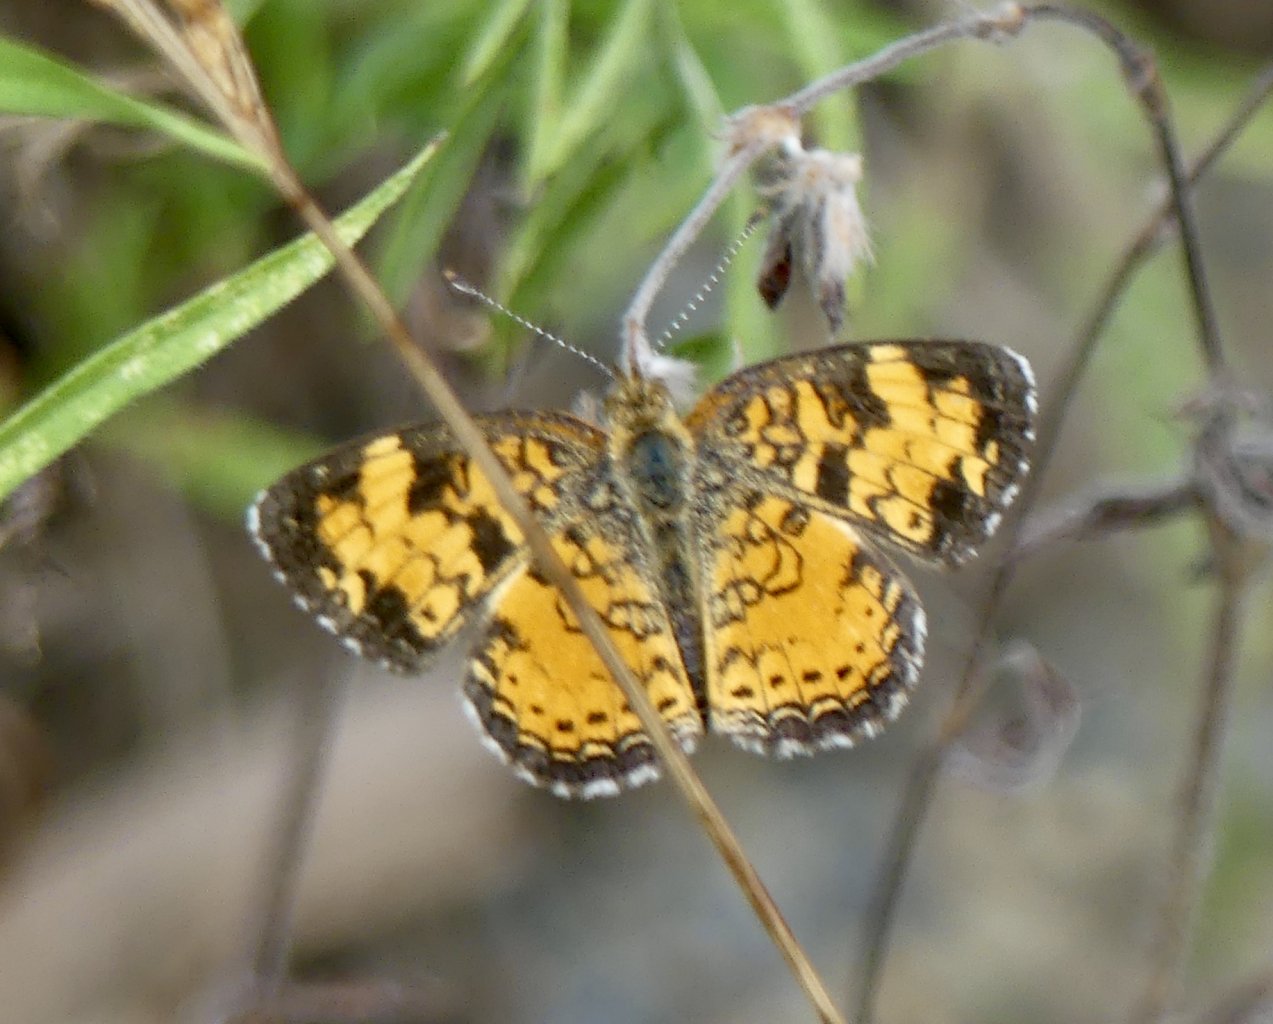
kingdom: Animalia
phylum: Arthropoda
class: Insecta
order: Lepidoptera
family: Nymphalidae
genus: Phyciodes
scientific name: Phyciodes tharos
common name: Pearl Crescent
